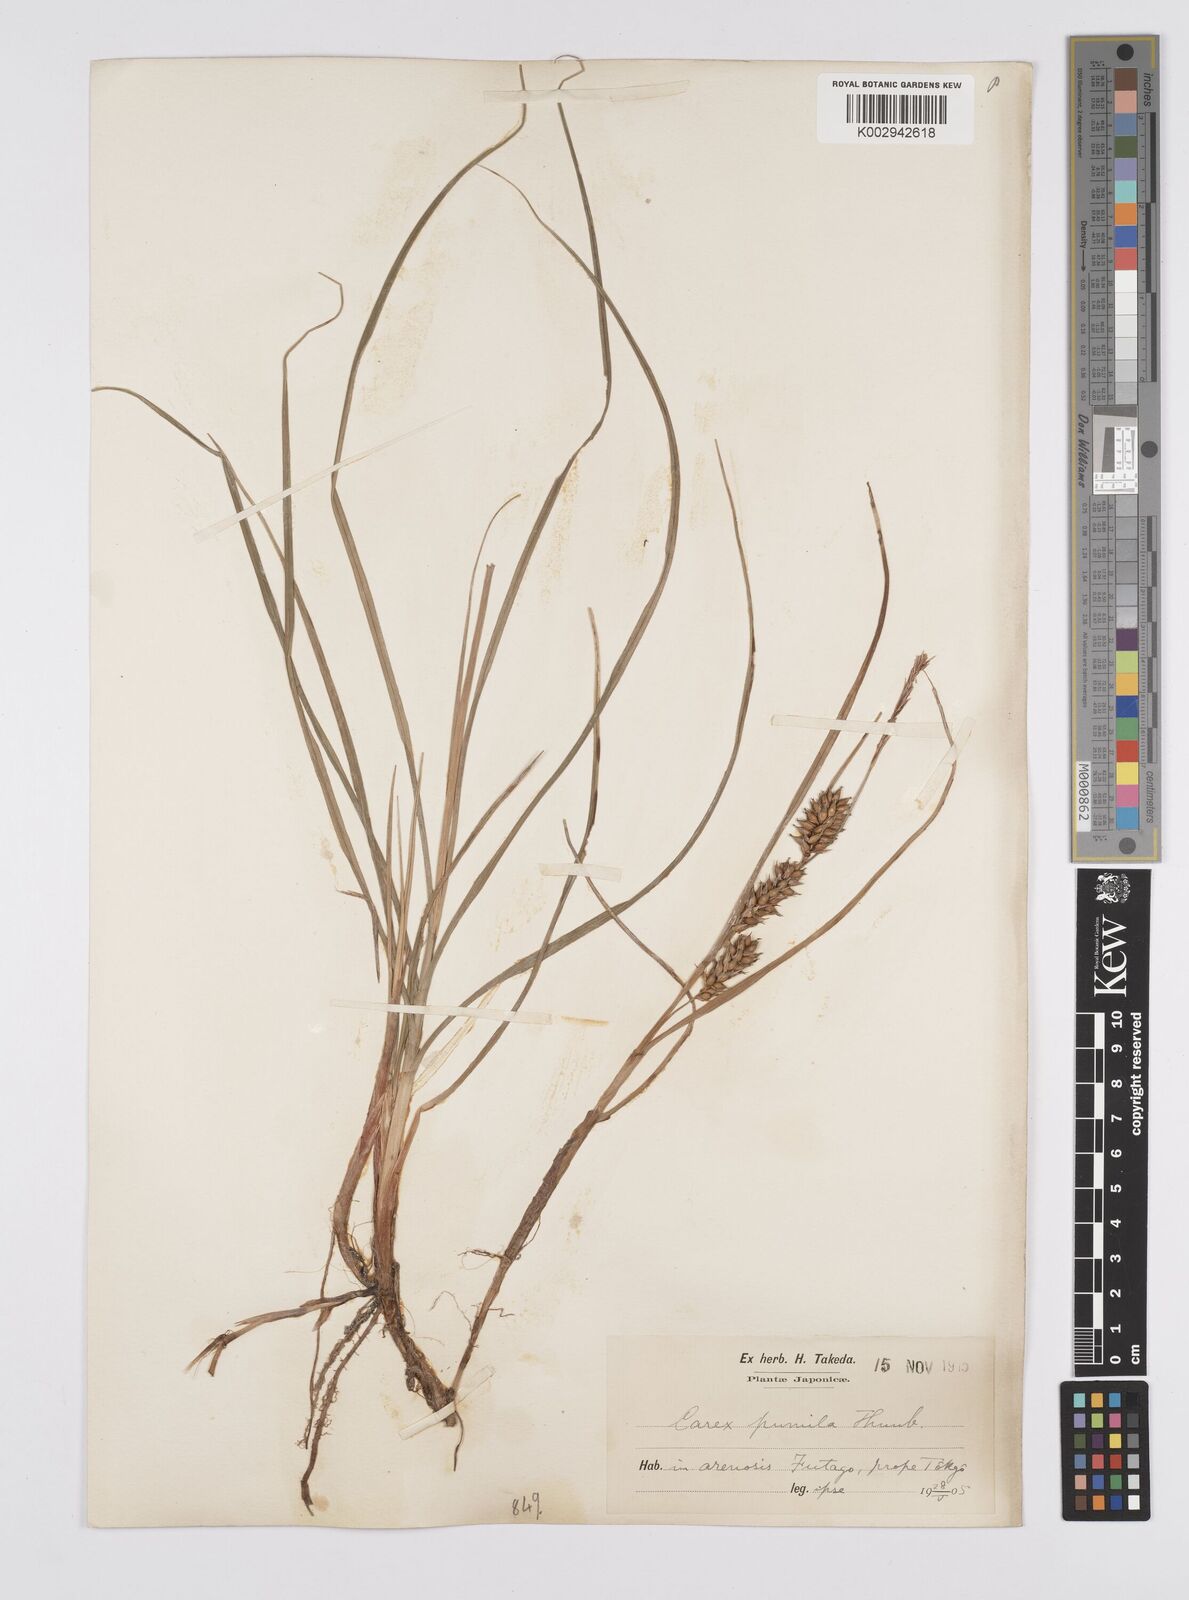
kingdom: Plantae
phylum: Tracheophyta
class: Liliopsida
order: Poales
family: Cyperaceae
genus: Carex
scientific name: Carex pumila
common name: Dwarf sedge
